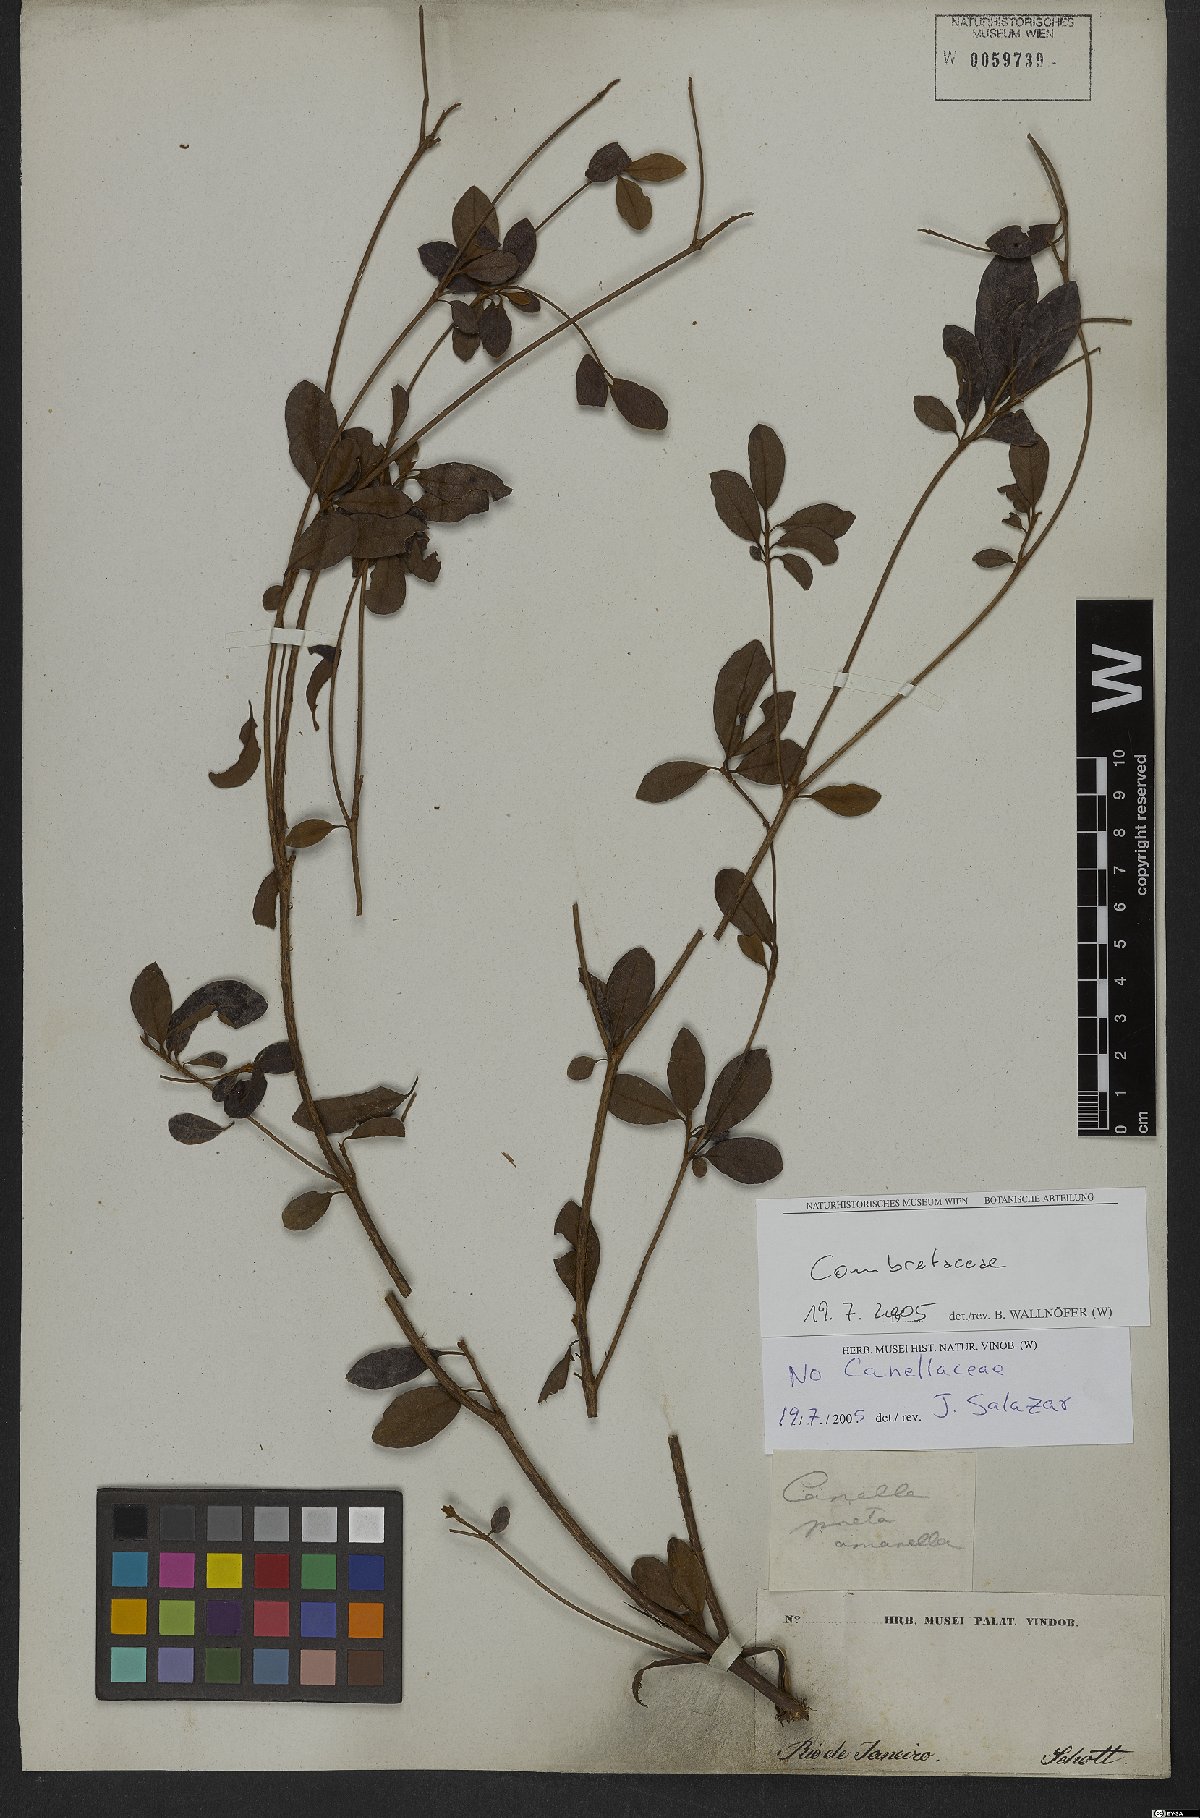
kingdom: Plantae
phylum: Tracheophyta
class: Magnoliopsida
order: Myrtales
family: Combretaceae
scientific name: Combretaceae
